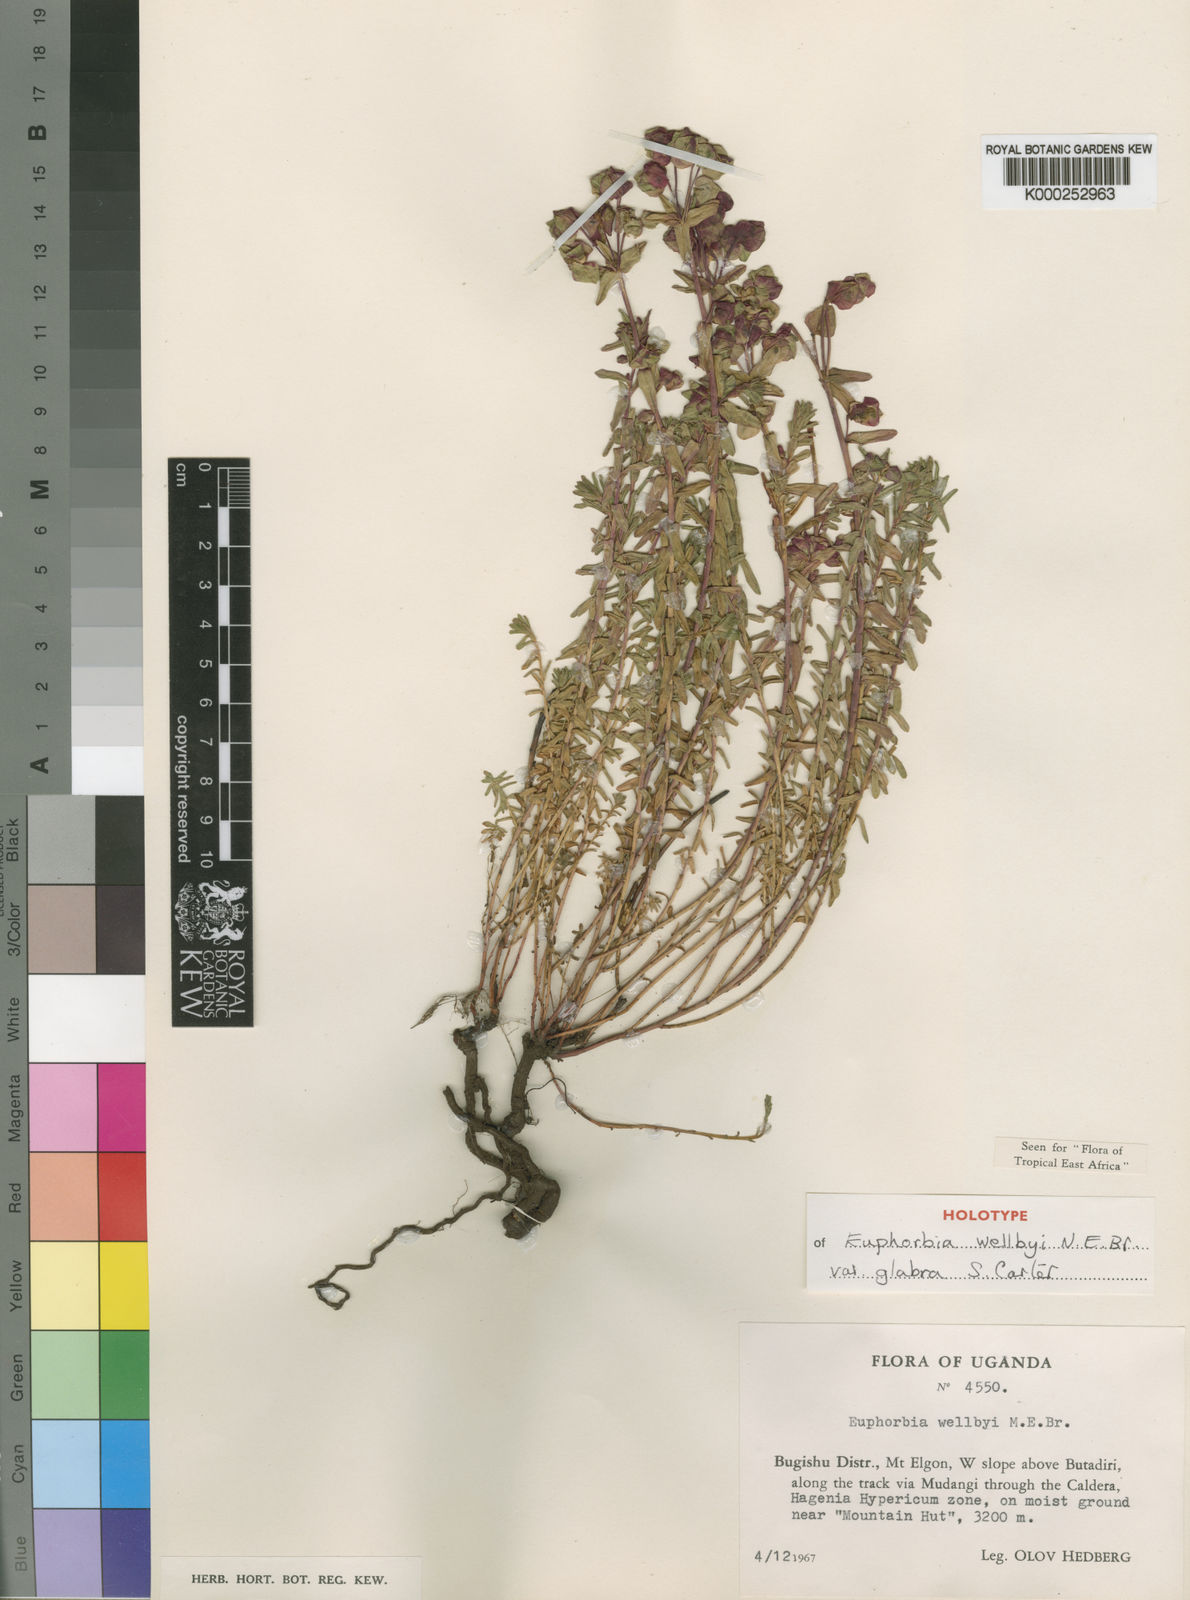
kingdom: Plantae
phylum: Tracheophyta
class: Magnoliopsida
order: Malpighiales
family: Euphorbiaceae
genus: Euphorbia
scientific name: Euphorbia wellbyi
